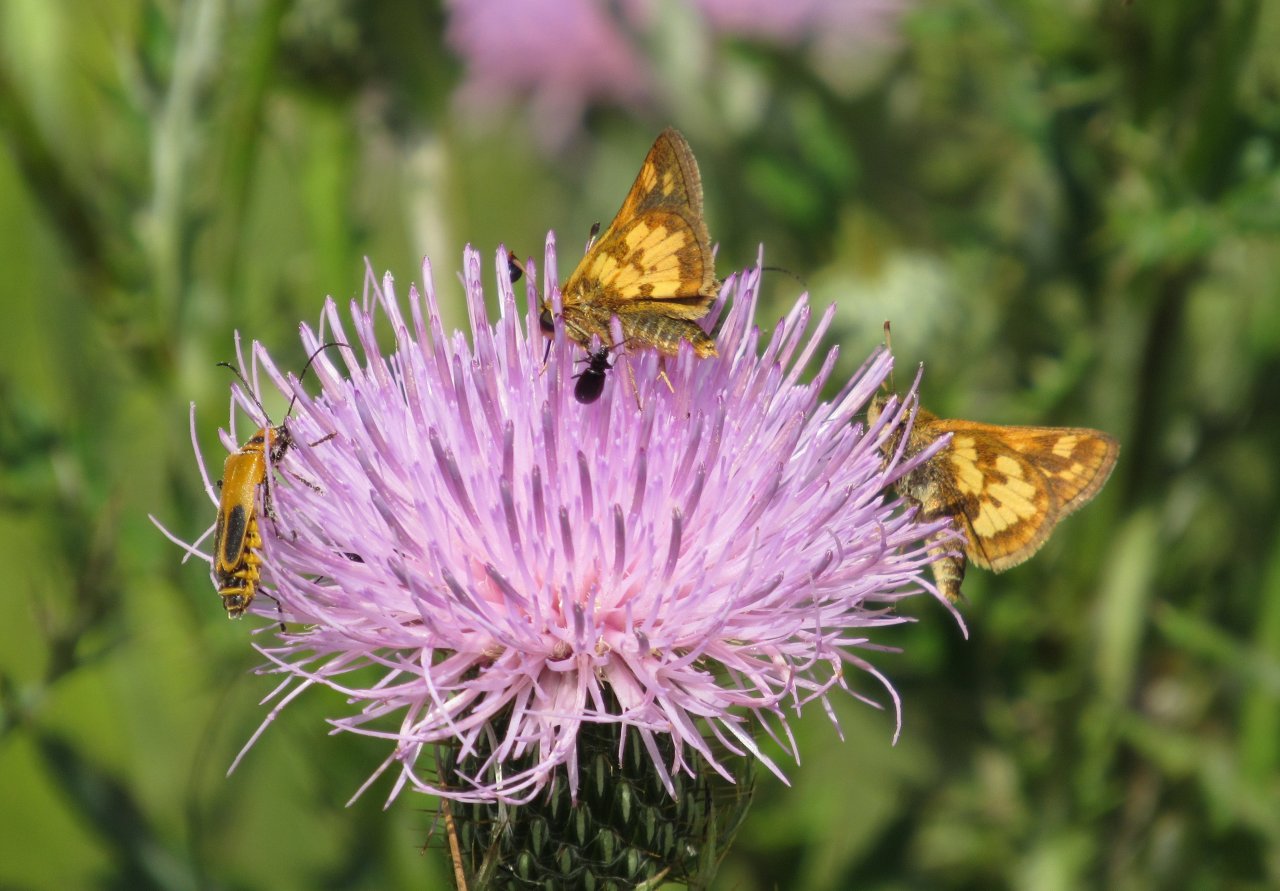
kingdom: Animalia
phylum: Arthropoda
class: Insecta
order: Lepidoptera
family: Hesperiidae
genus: Polites
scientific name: Polites coras
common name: Peck's Skipper
